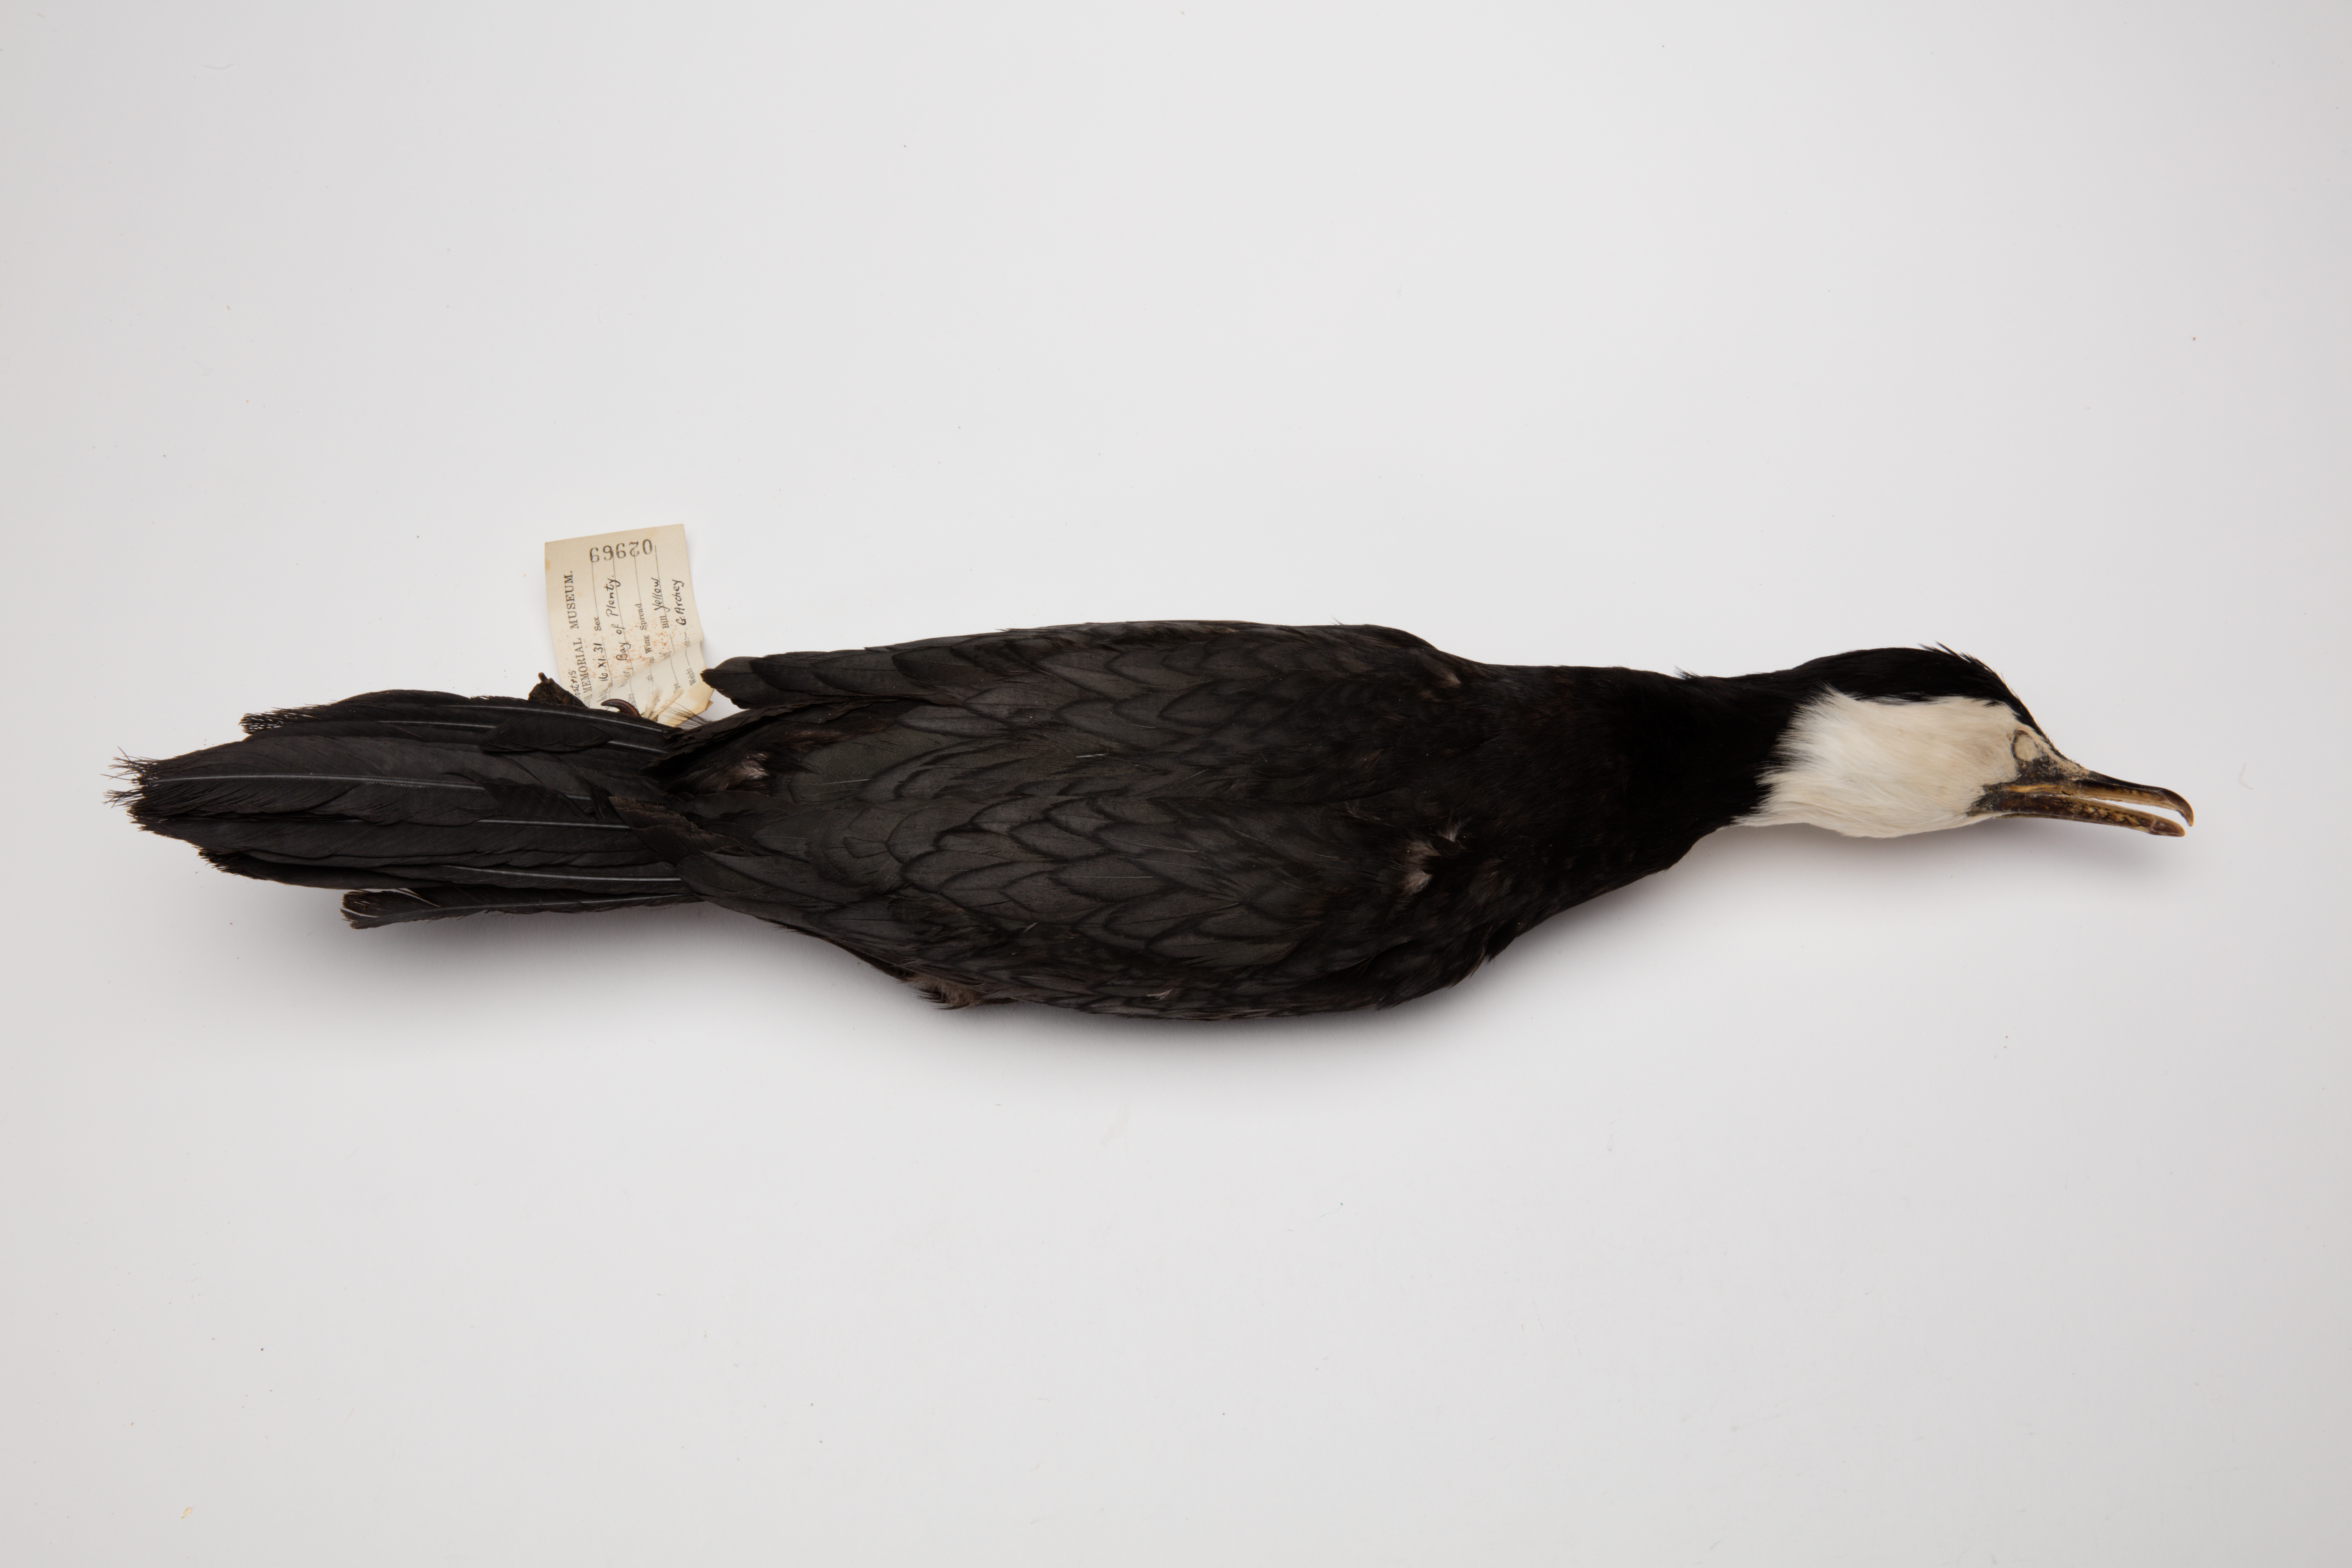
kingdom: Animalia
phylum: Chordata
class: Aves
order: Suliformes
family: Phalacrocoracidae
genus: Microcarbo
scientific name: Microcarbo melanoleucos
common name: Little pied cormorant
